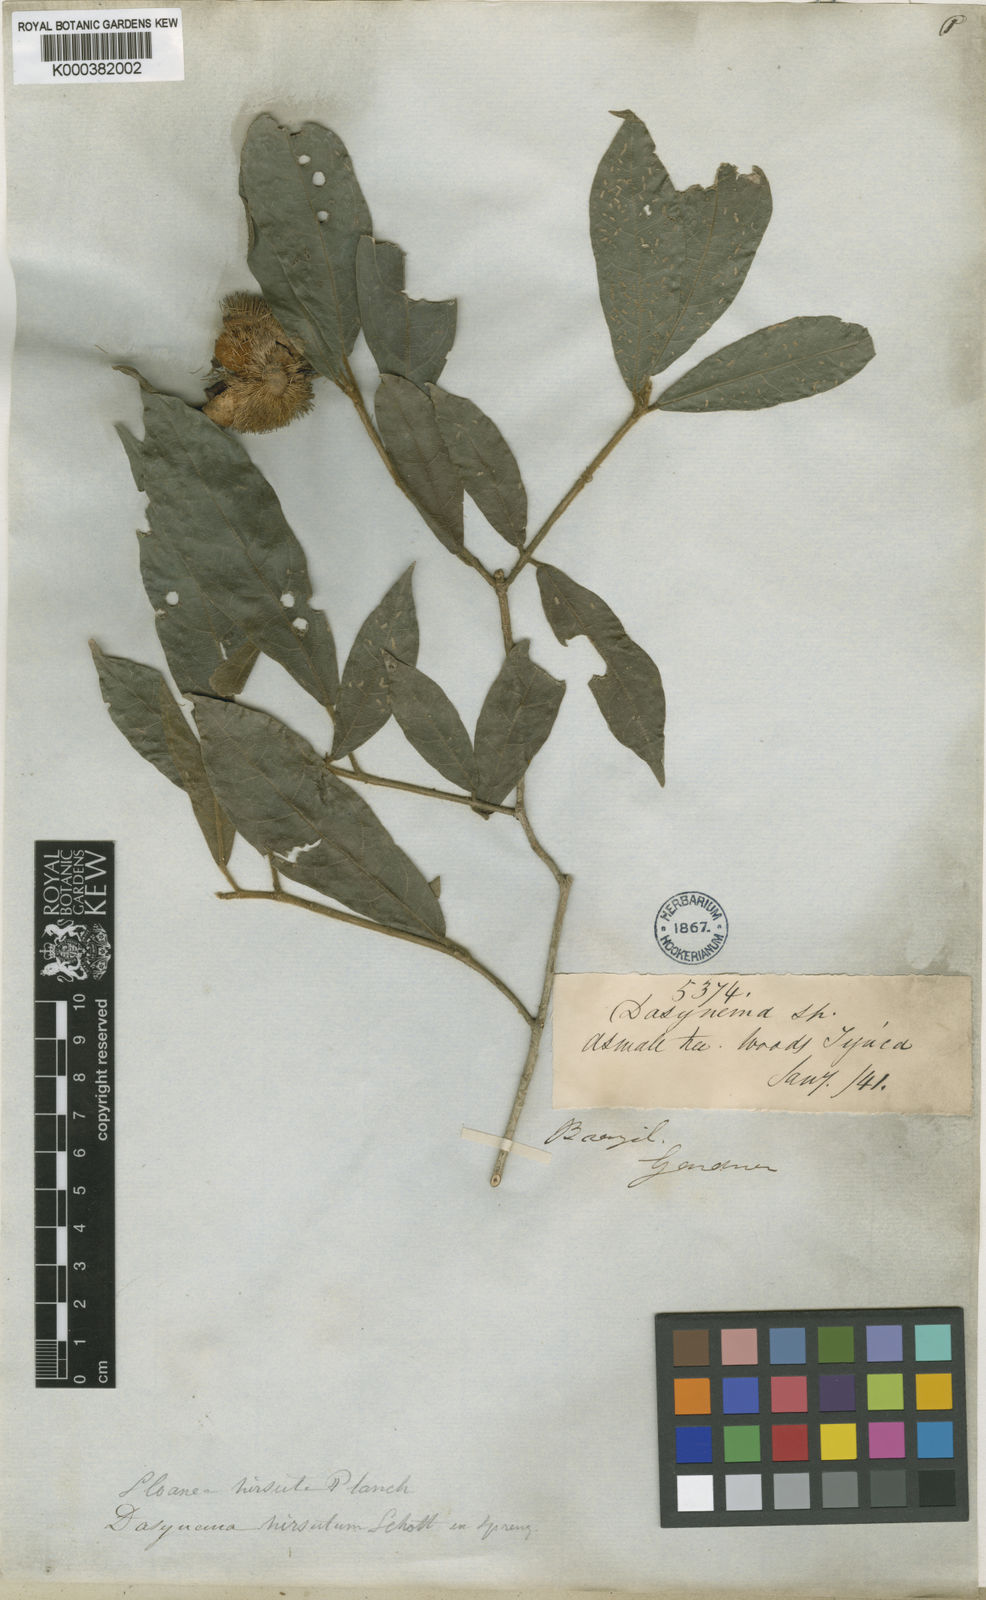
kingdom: Plantae
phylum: Tracheophyta
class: Magnoliopsida
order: Oxalidales
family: Elaeocarpaceae
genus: Sloanea
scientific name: Sloanea hirsuta
